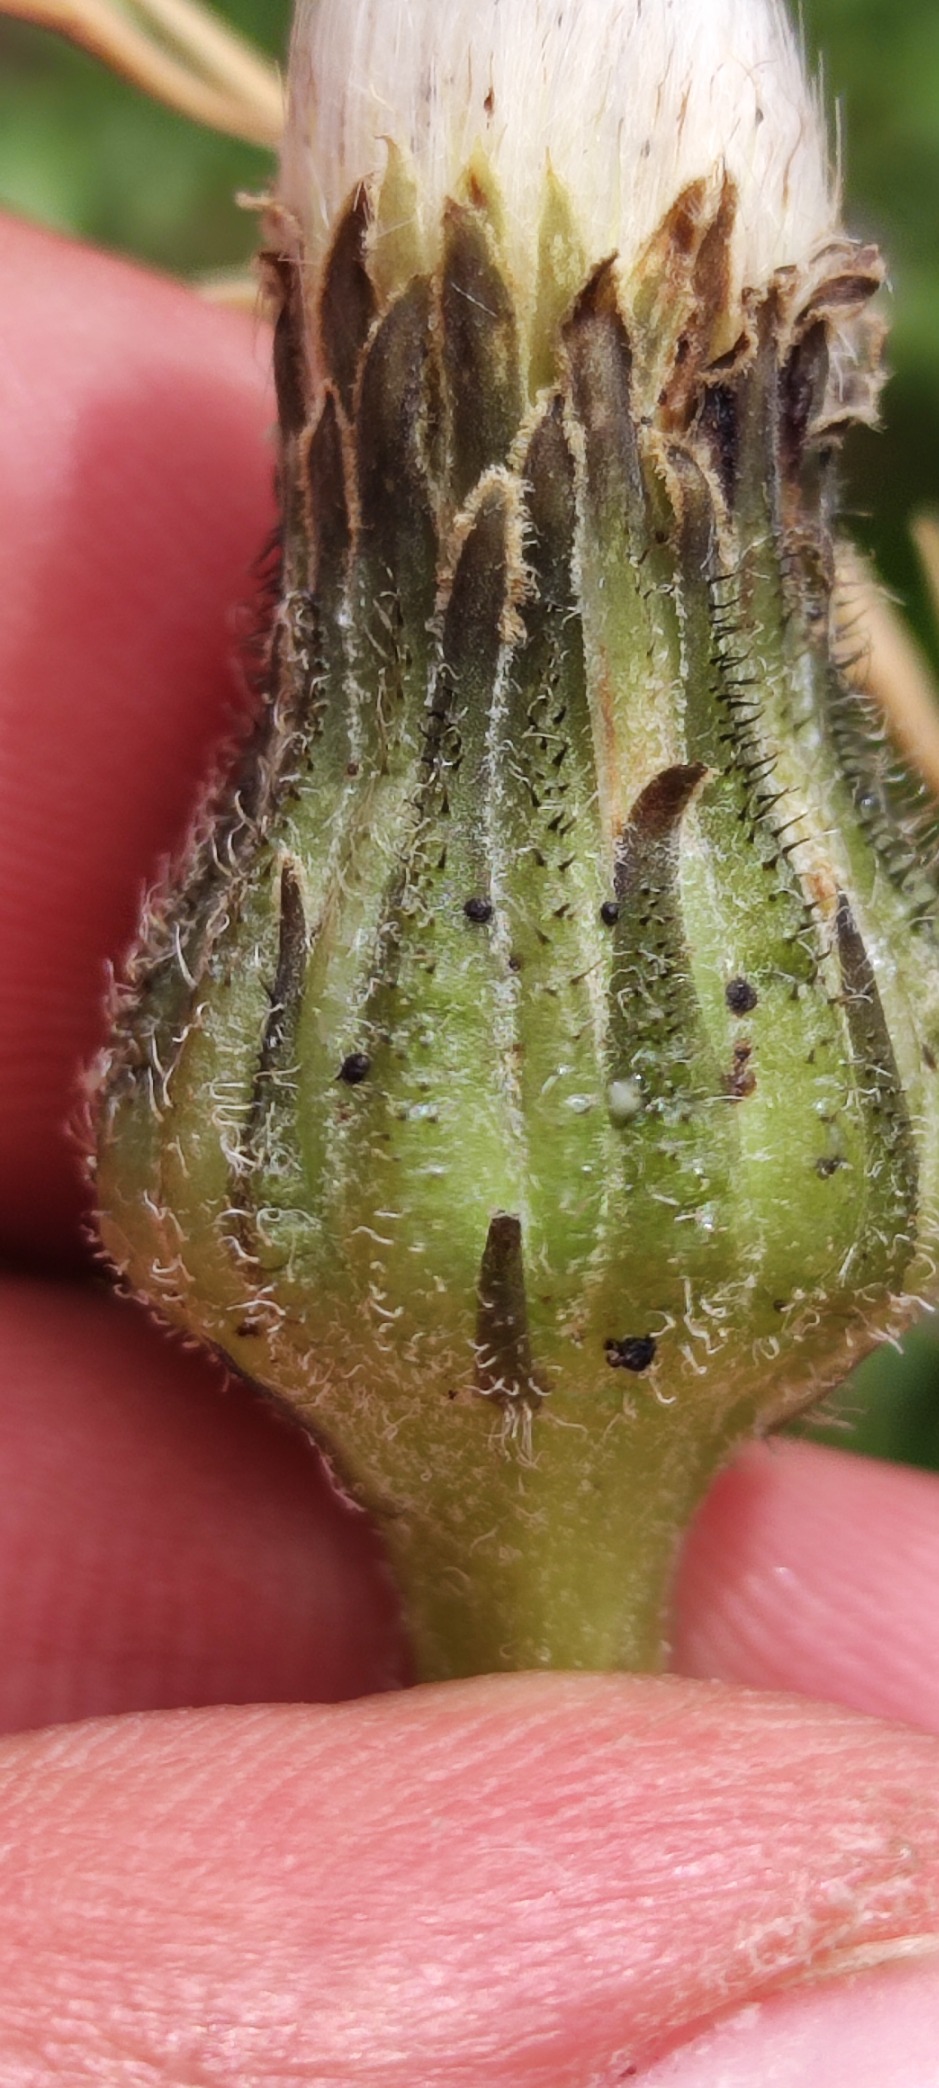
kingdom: Plantae
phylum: Tracheophyta
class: Magnoliopsida
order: Asterales
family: Asteraceae
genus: Trommsdorffia
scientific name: Trommsdorffia maculata
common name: Plettet kongepen
